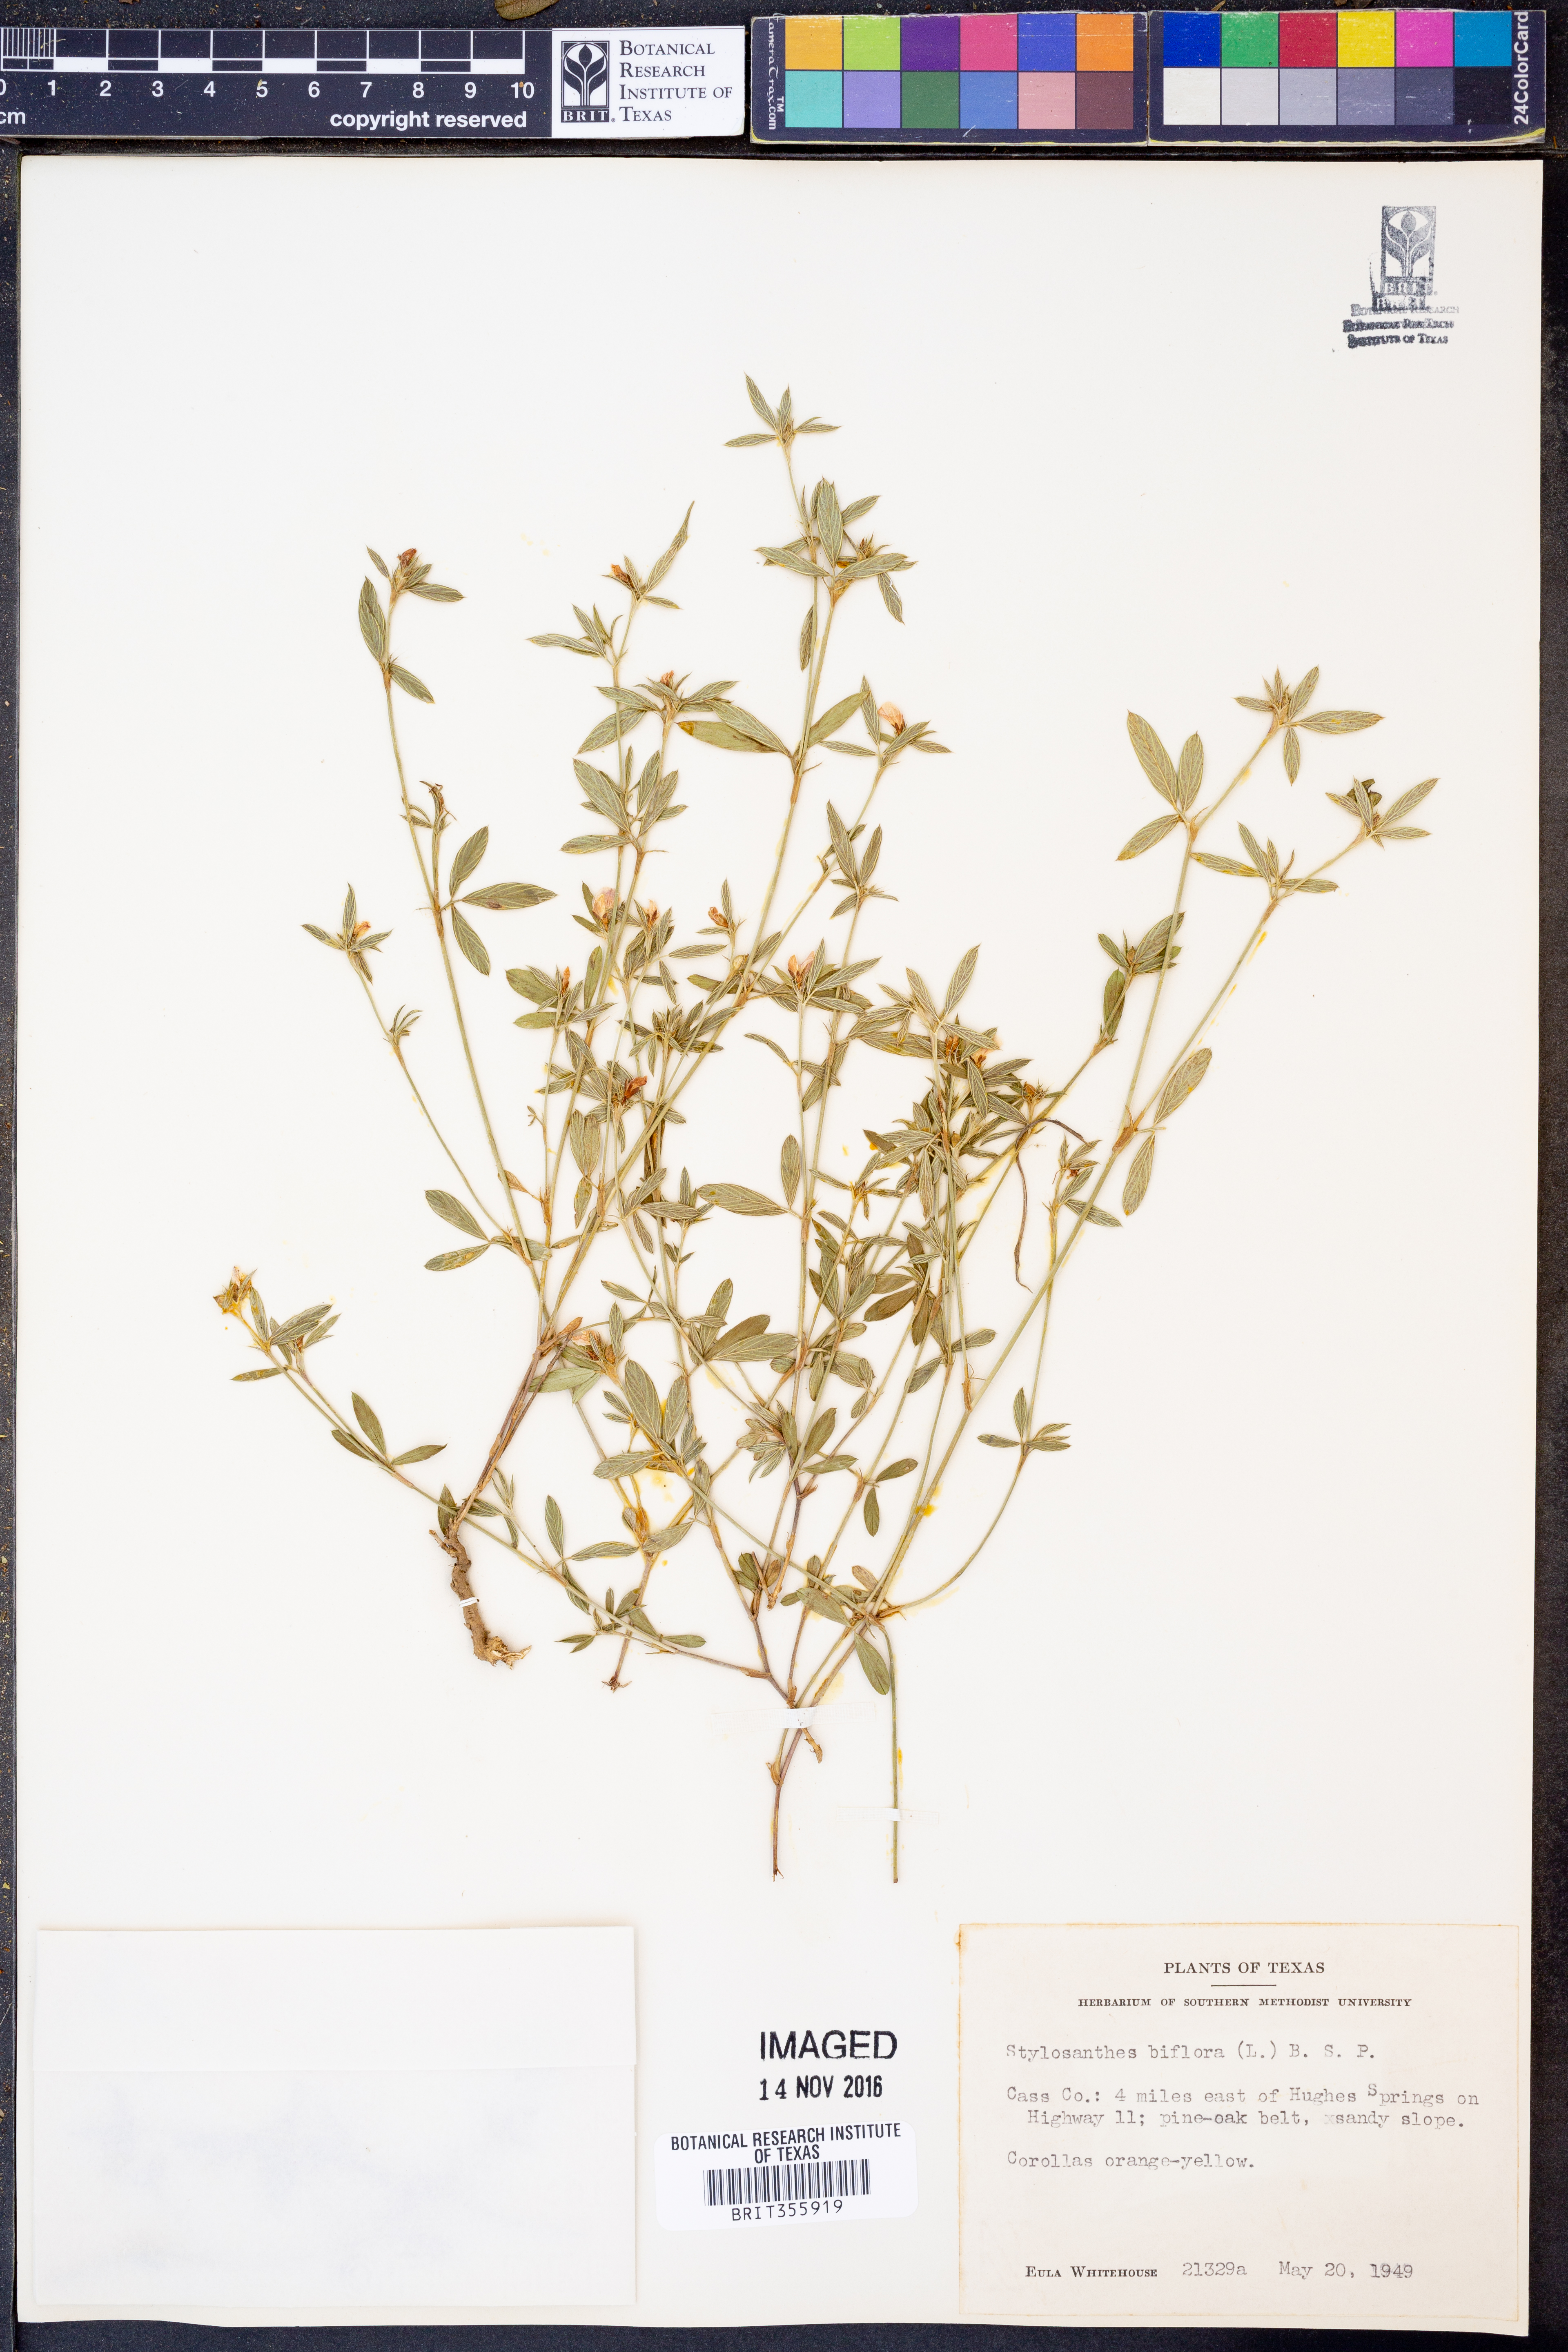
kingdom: Plantae
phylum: Tracheophyta
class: Magnoliopsida
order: Fabales
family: Fabaceae
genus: Stylosanthes
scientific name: Stylosanthes biflora
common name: Two-flower pencil-flower
